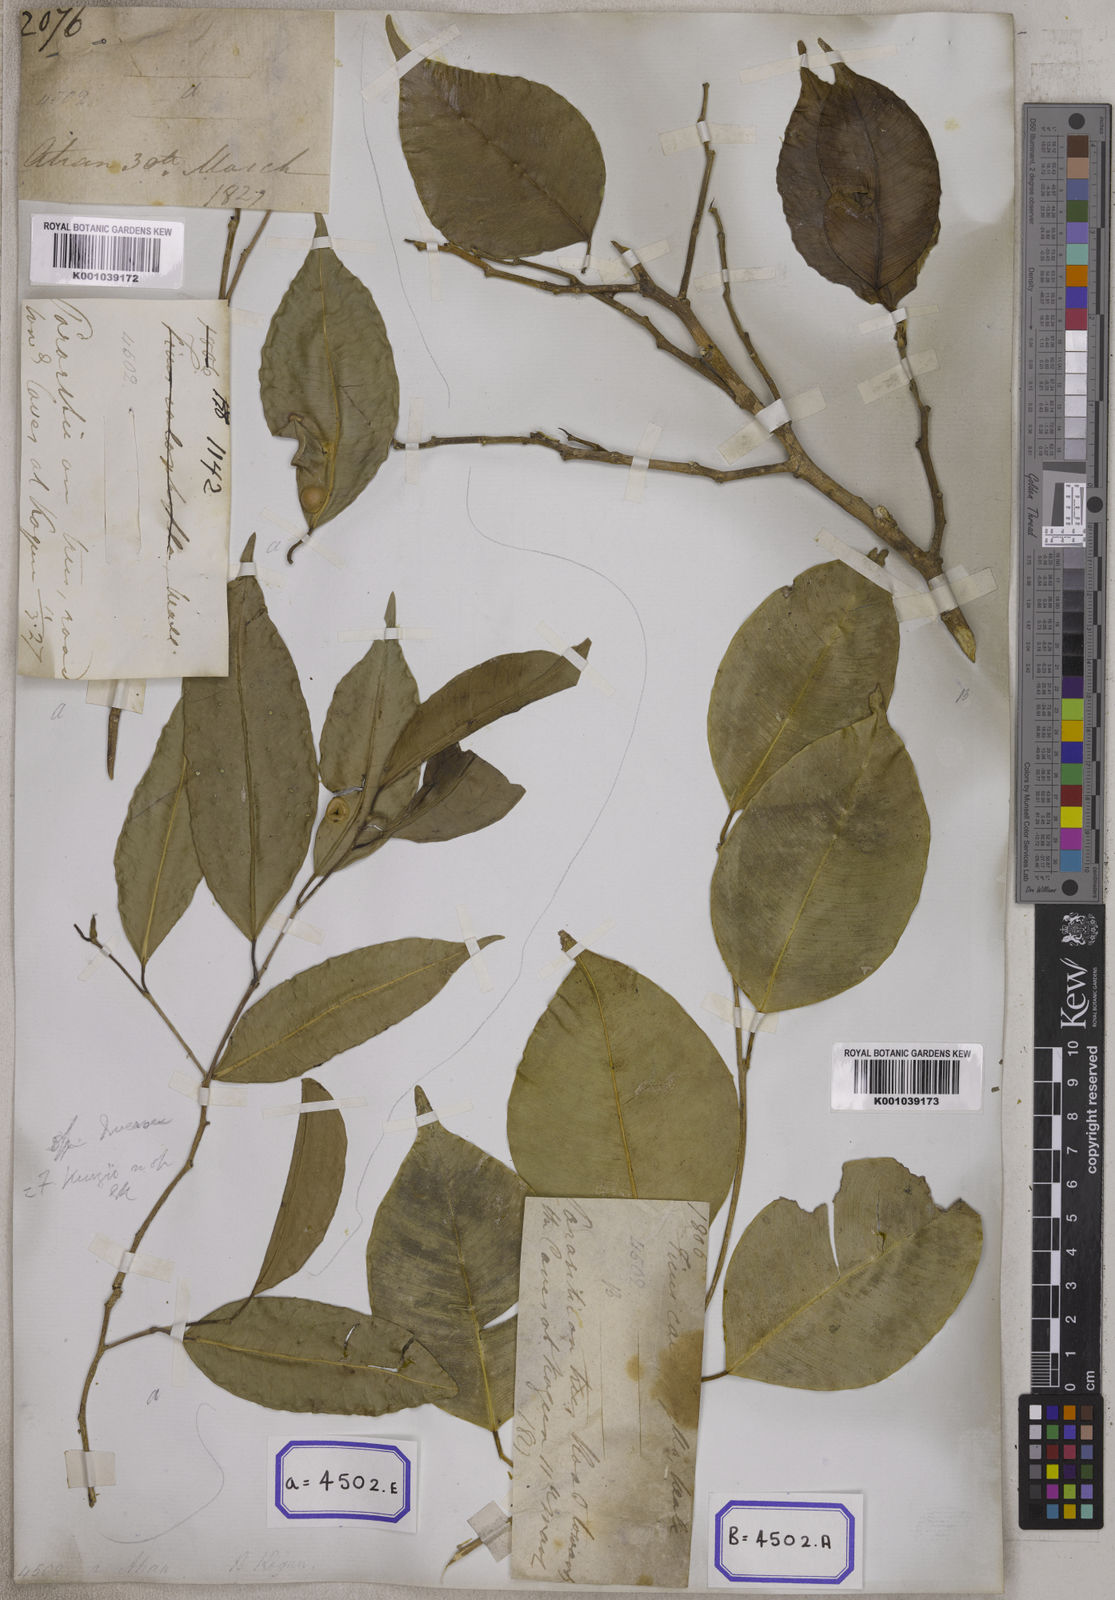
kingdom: Plantae
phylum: Tracheophyta
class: Magnoliopsida
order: Rosales
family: Moraceae
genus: Ficus
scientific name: Ficus benjamina
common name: Weeping fig
